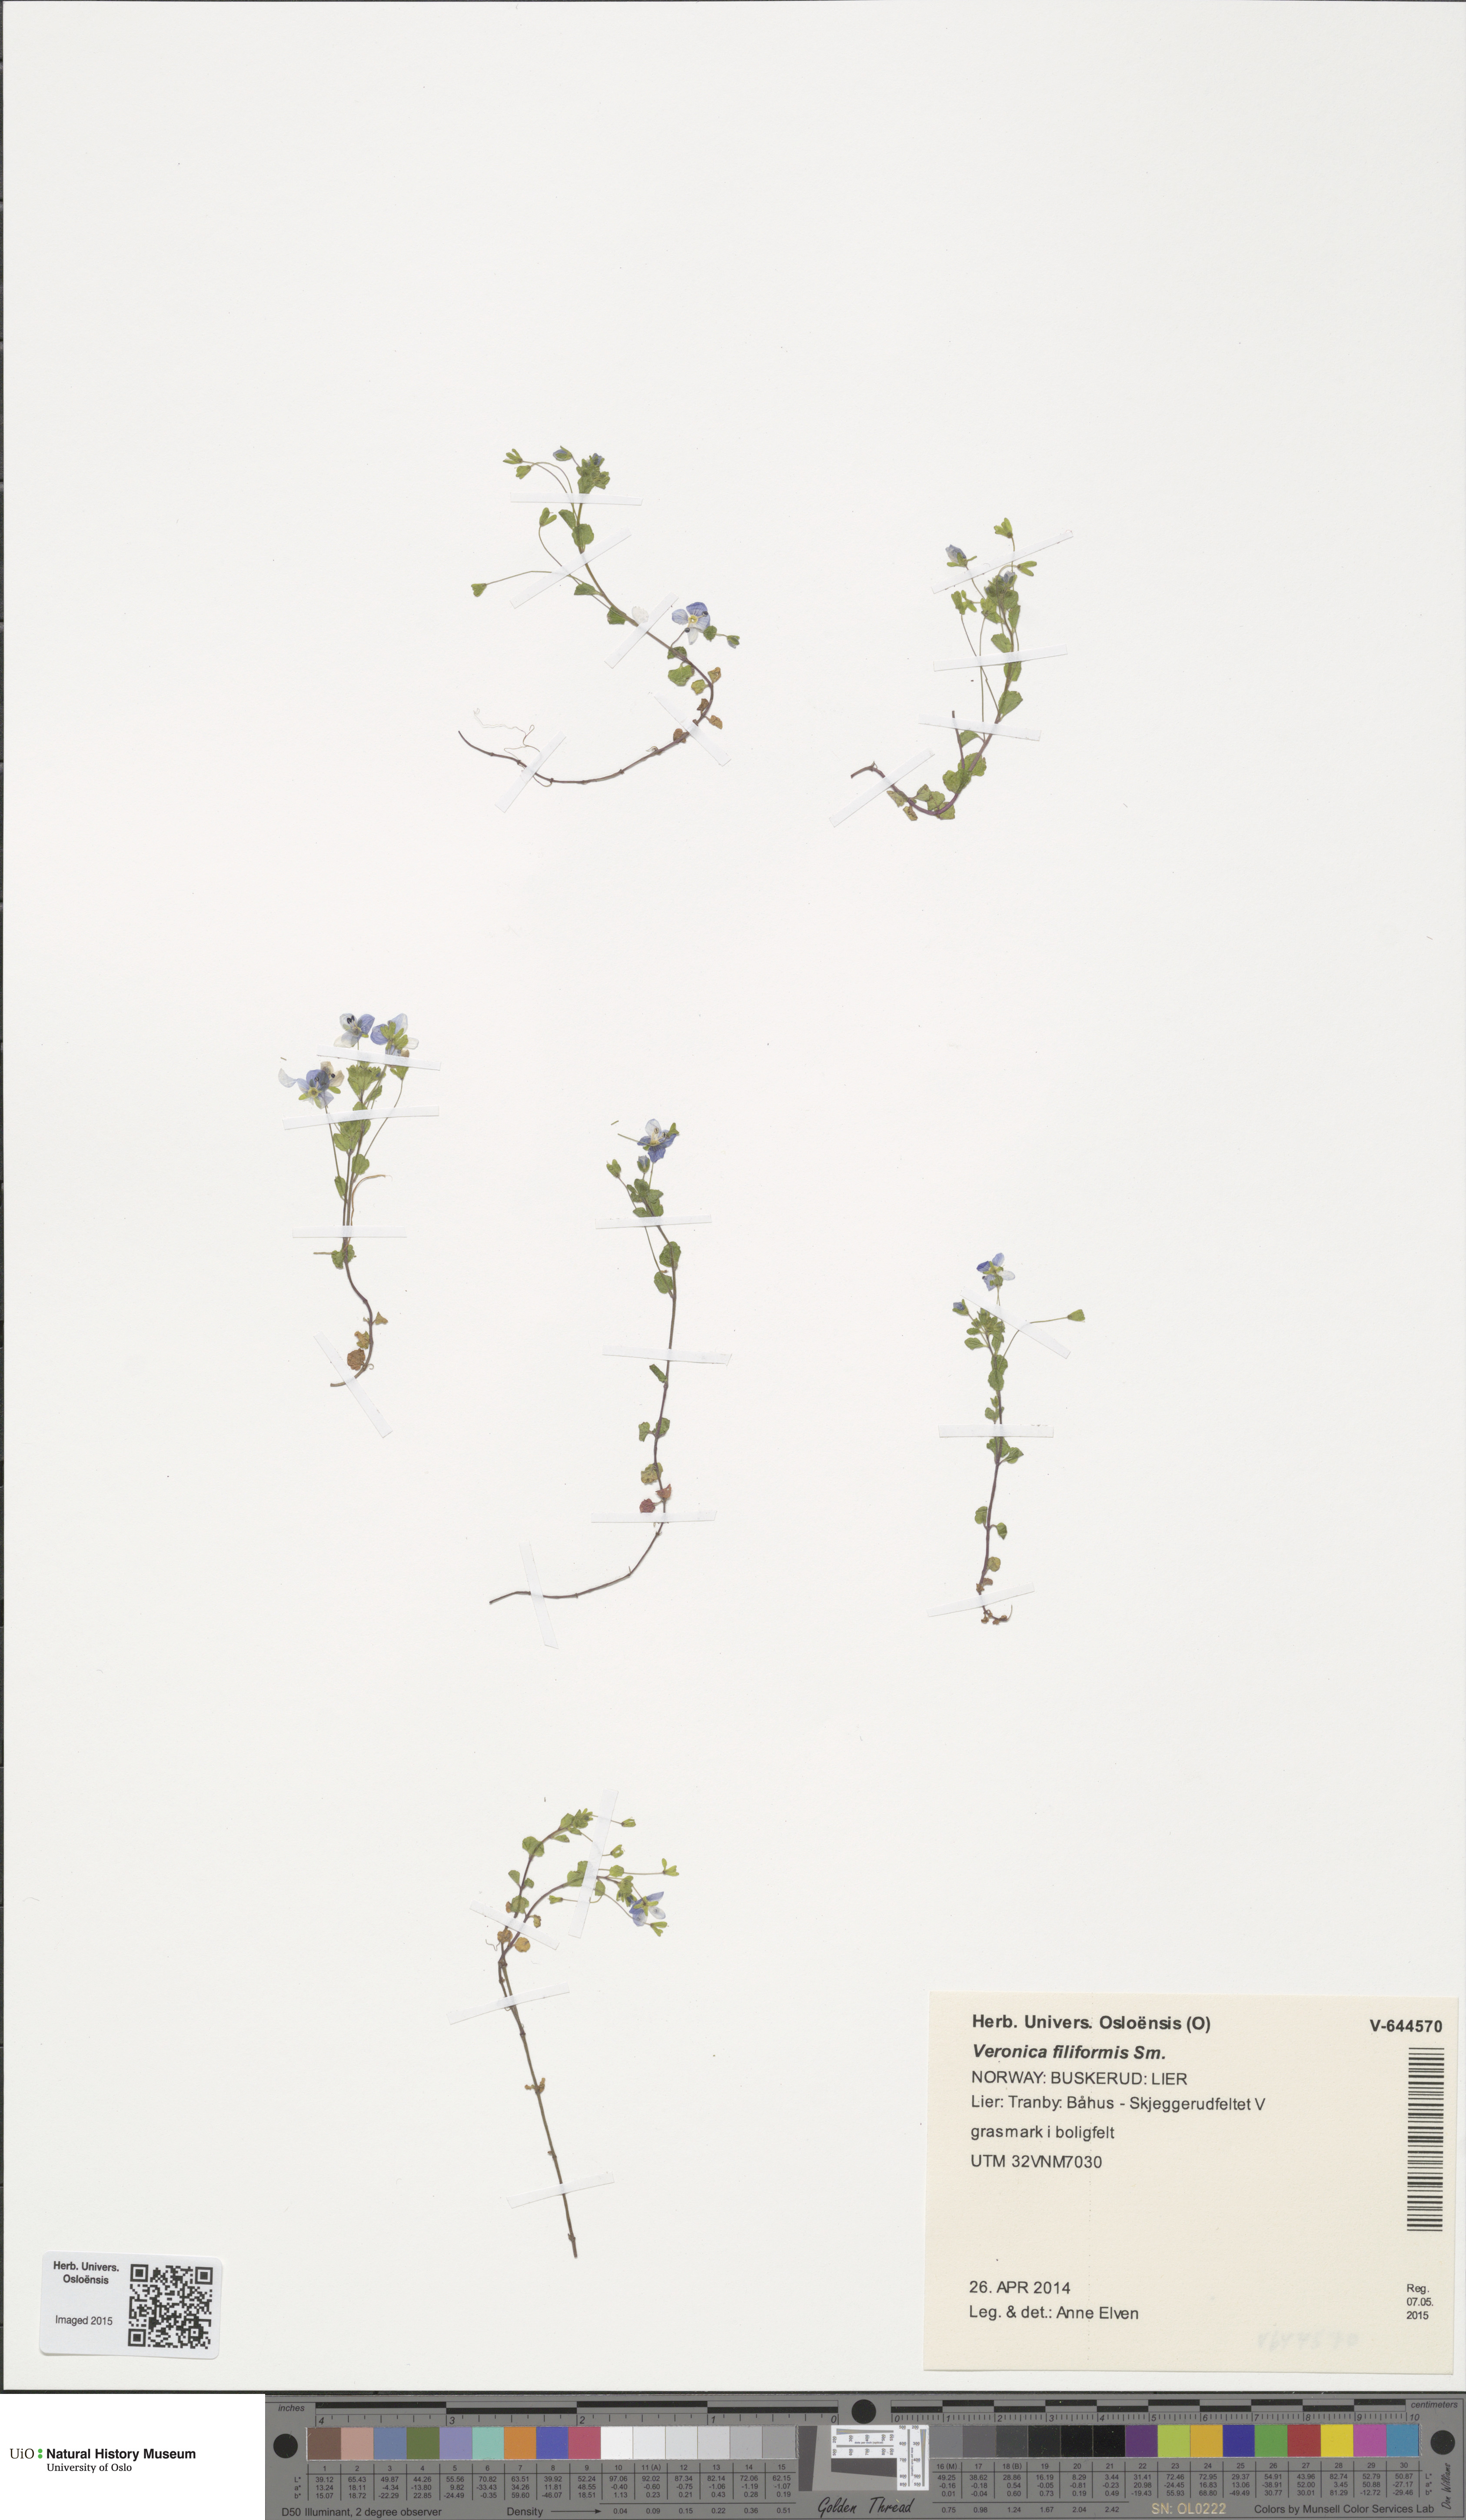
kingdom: Plantae
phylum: Tracheophyta
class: Magnoliopsida
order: Lamiales
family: Plantaginaceae
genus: Veronica
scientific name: Veronica filiformis
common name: Slender speedwell
